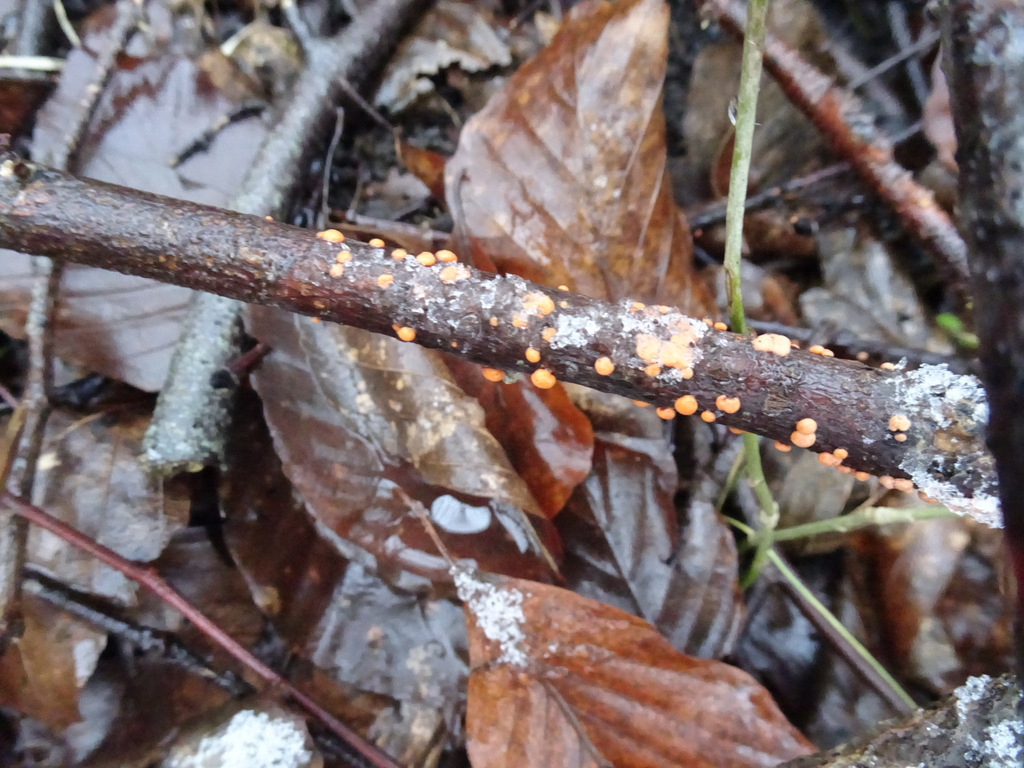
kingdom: Fungi
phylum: Ascomycota
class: Sordariomycetes
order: Hypocreales
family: Nectriaceae
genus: Nectria
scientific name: Nectria cinnabarina
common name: almindelig cinnobersvamp
